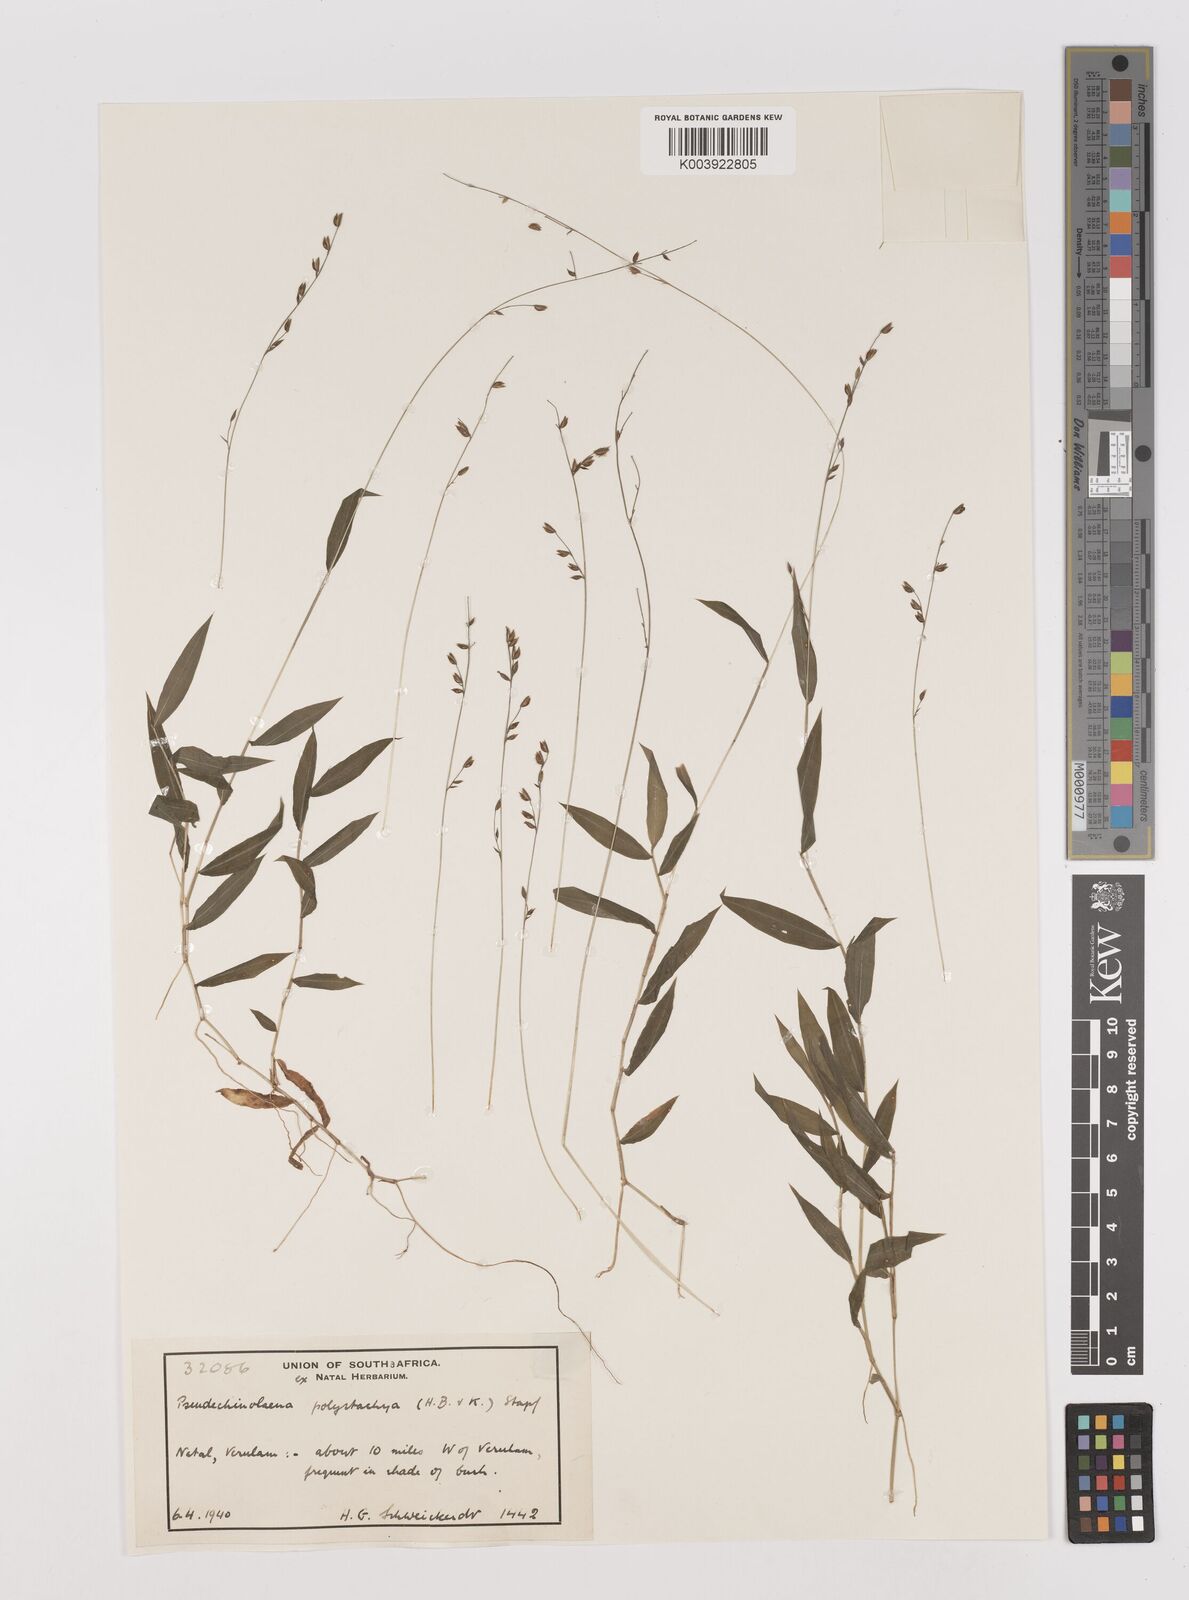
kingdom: Plantae
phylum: Tracheophyta
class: Liliopsida
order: Poales
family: Poaceae
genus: Pseudechinolaena
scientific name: Pseudechinolaena polystachya
